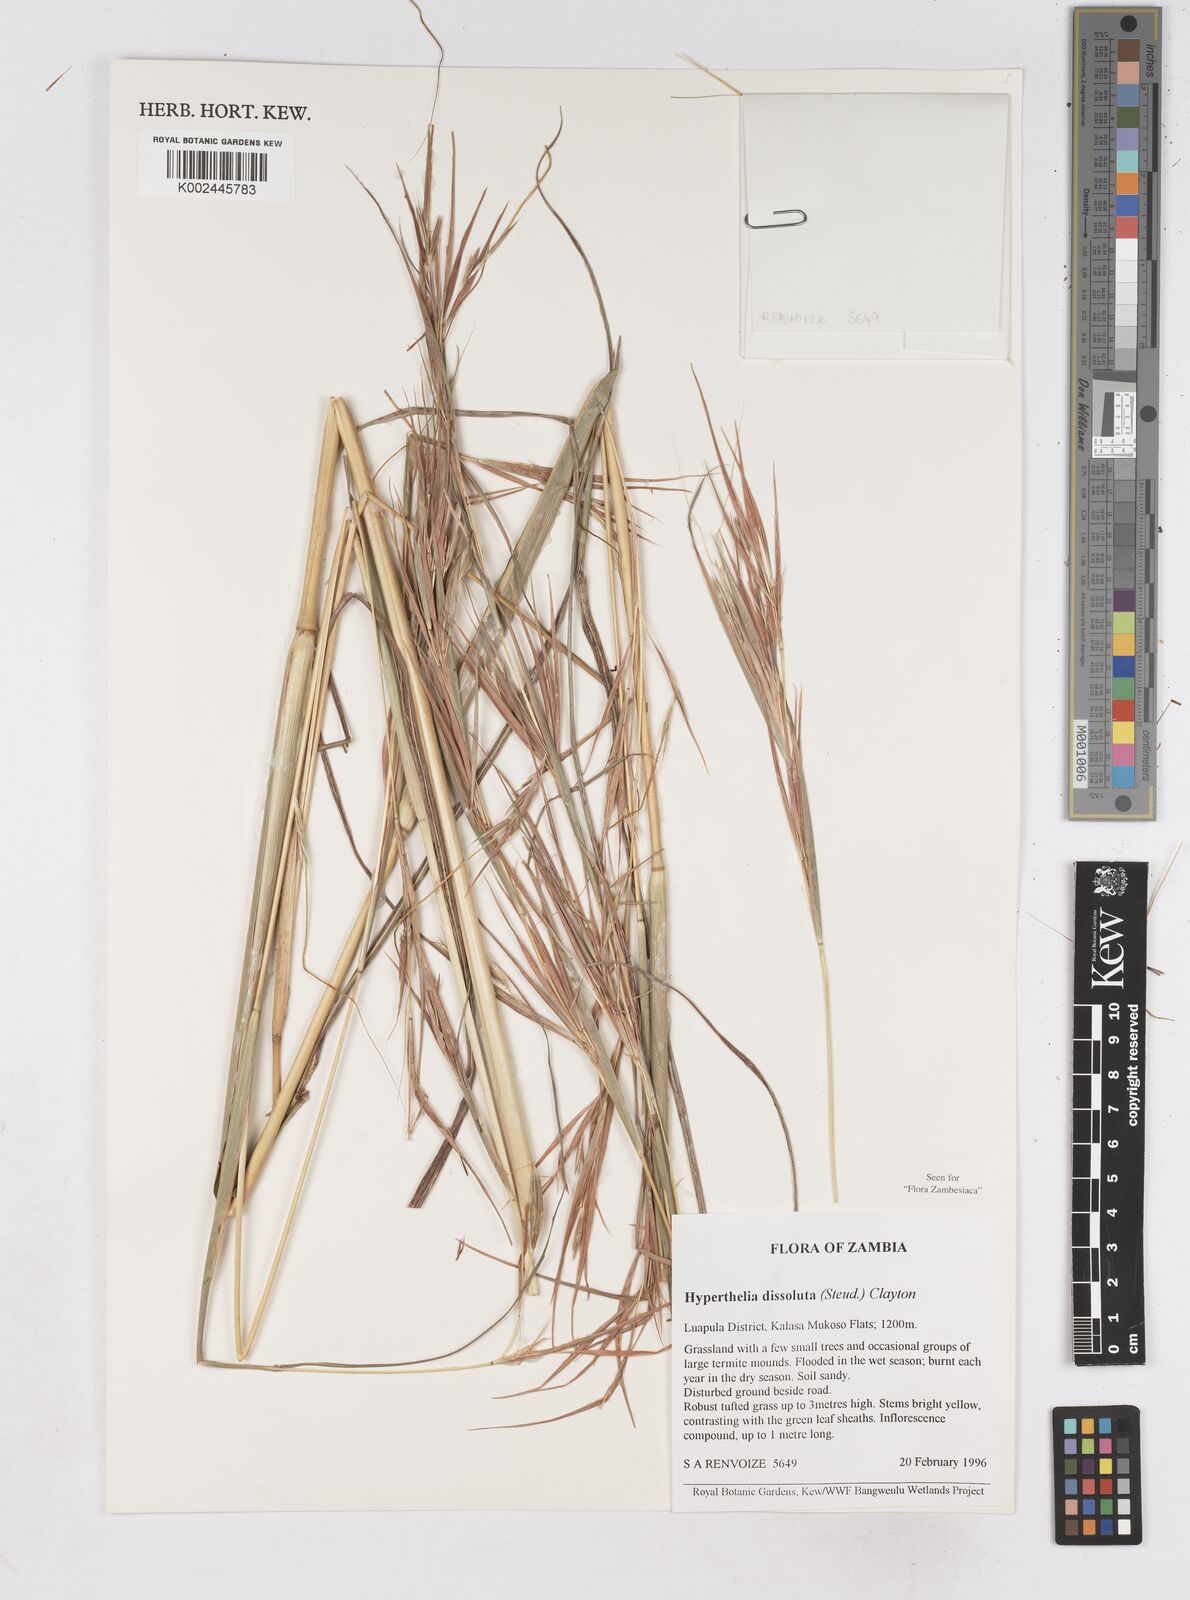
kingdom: Plantae
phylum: Tracheophyta
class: Liliopsida
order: Poales
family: Poaceae
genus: Hyperthelia
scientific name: Hyperthelia dissoluta
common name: Yellow thatching grass
